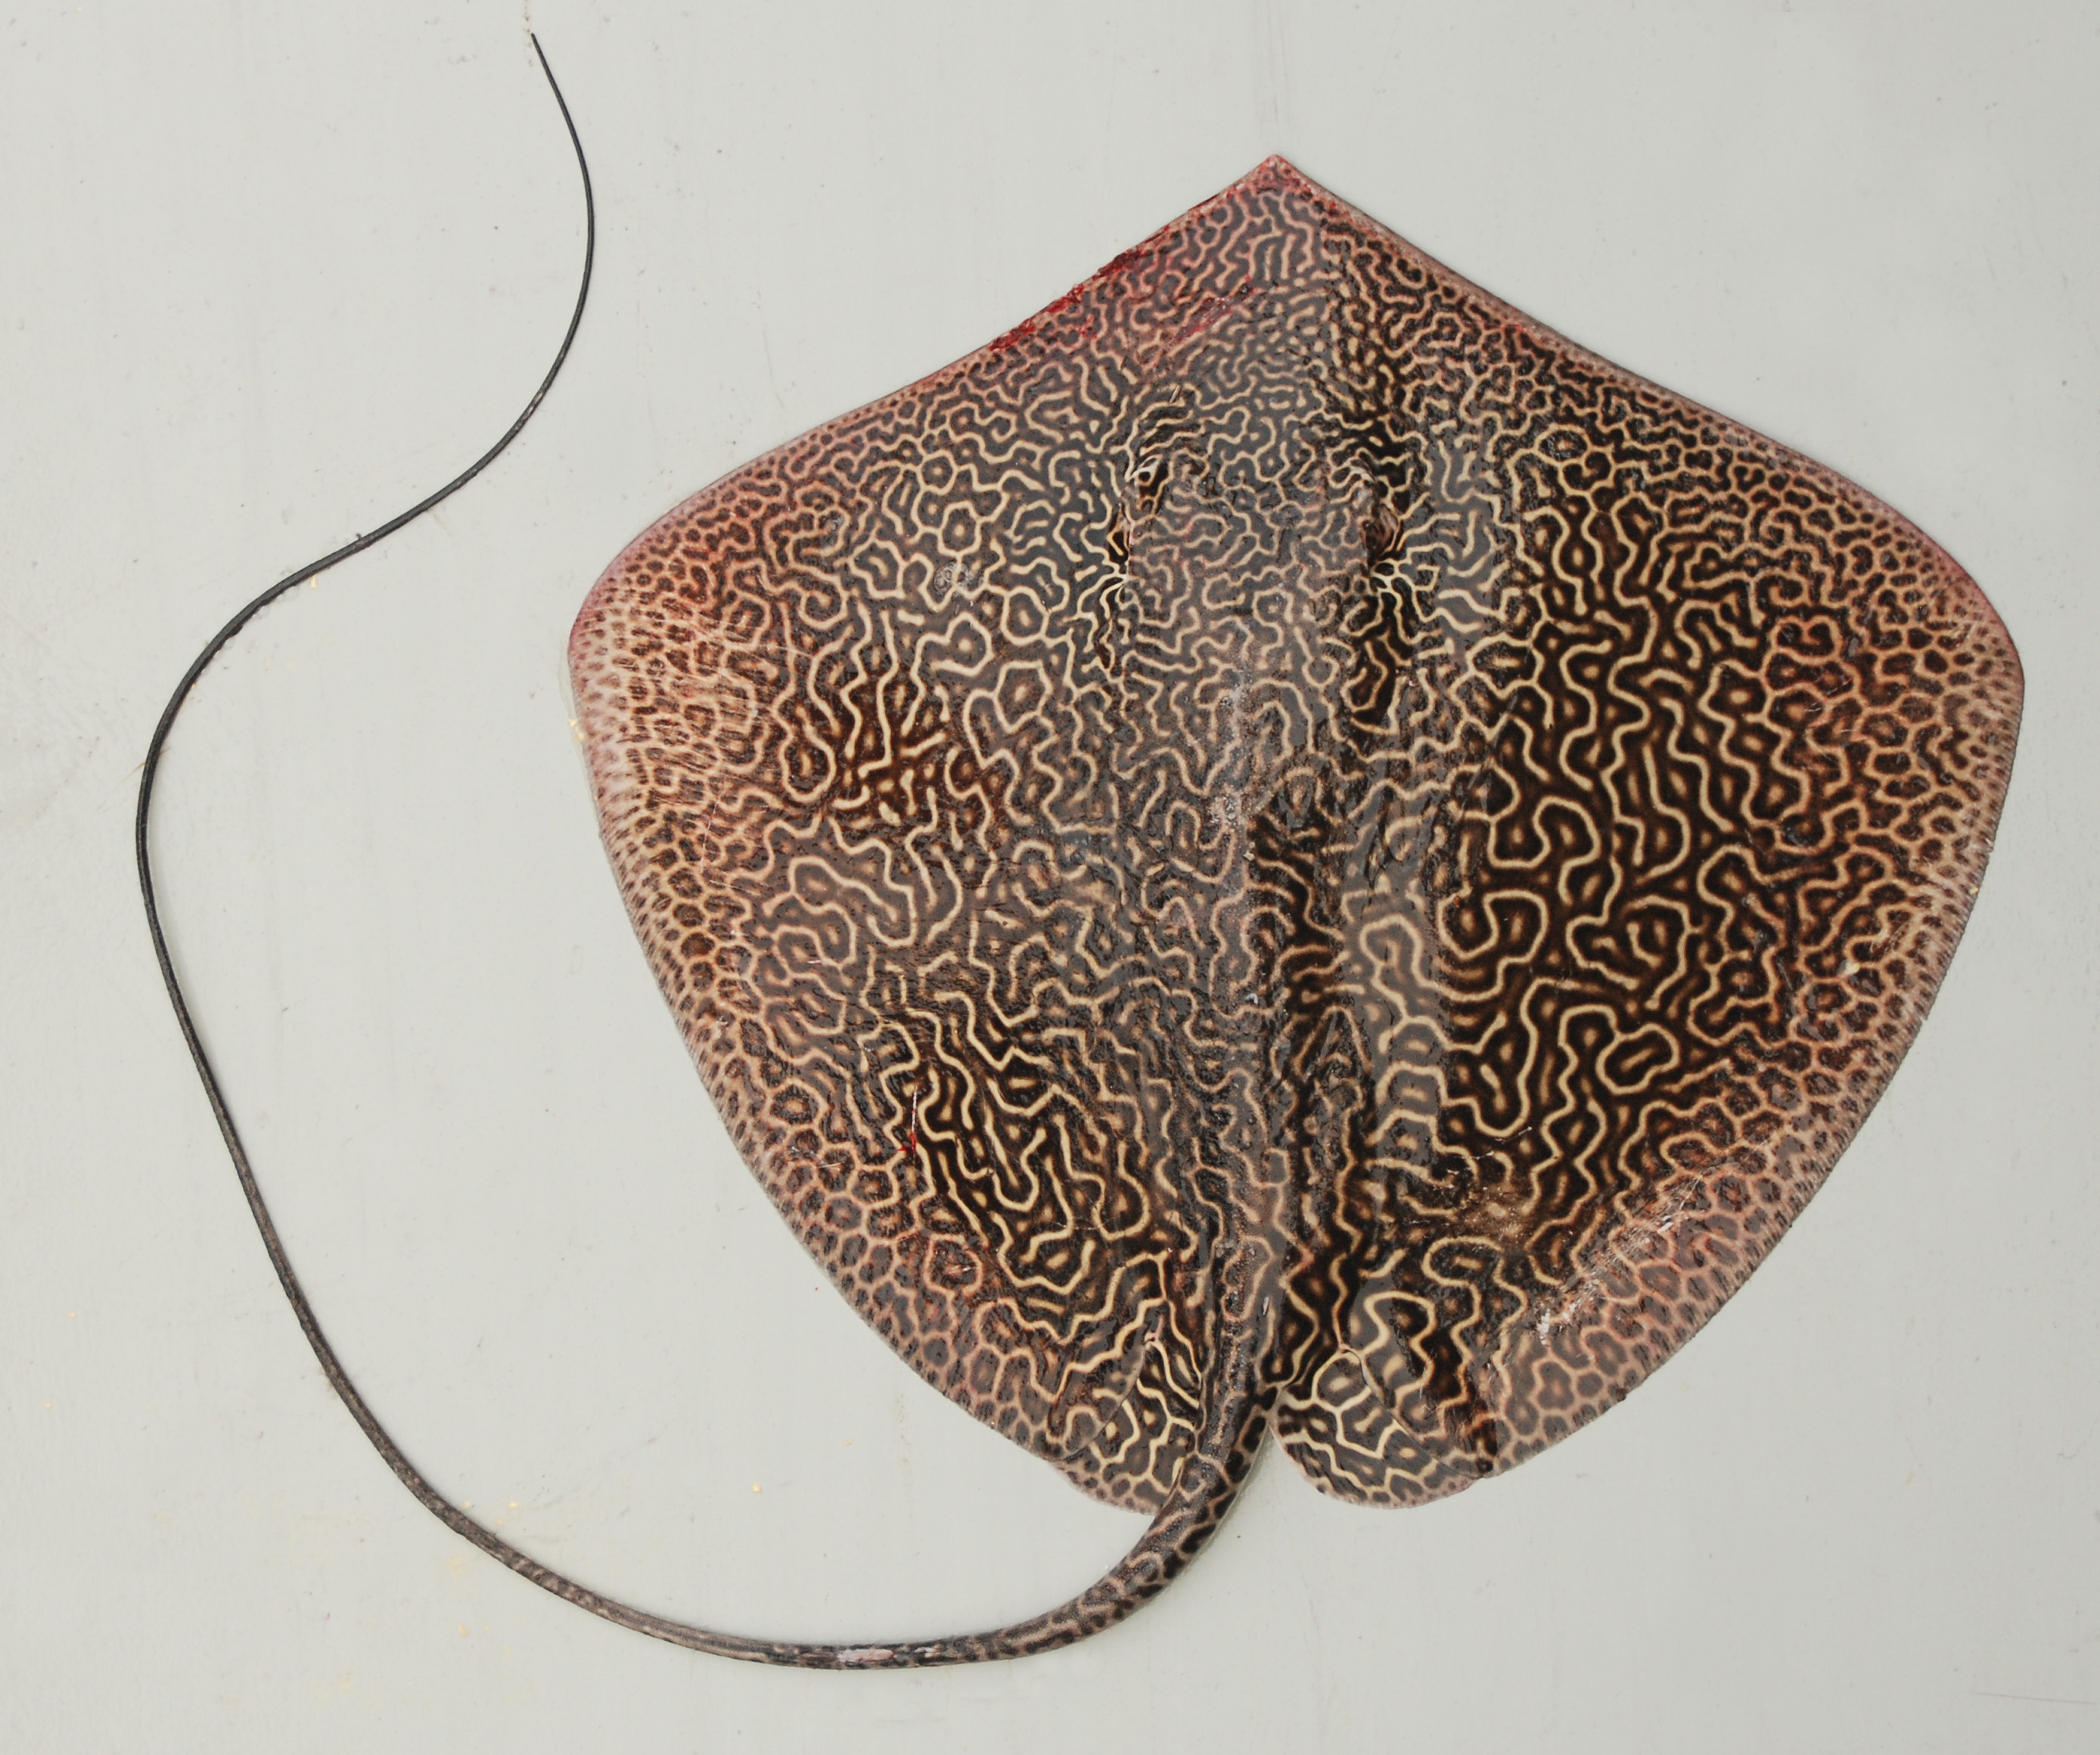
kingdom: Animalia
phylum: Chordata
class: Elasmobranchii
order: Myliobatiformes
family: Dasyatidae
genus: Himantura
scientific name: Himantura uarnak
